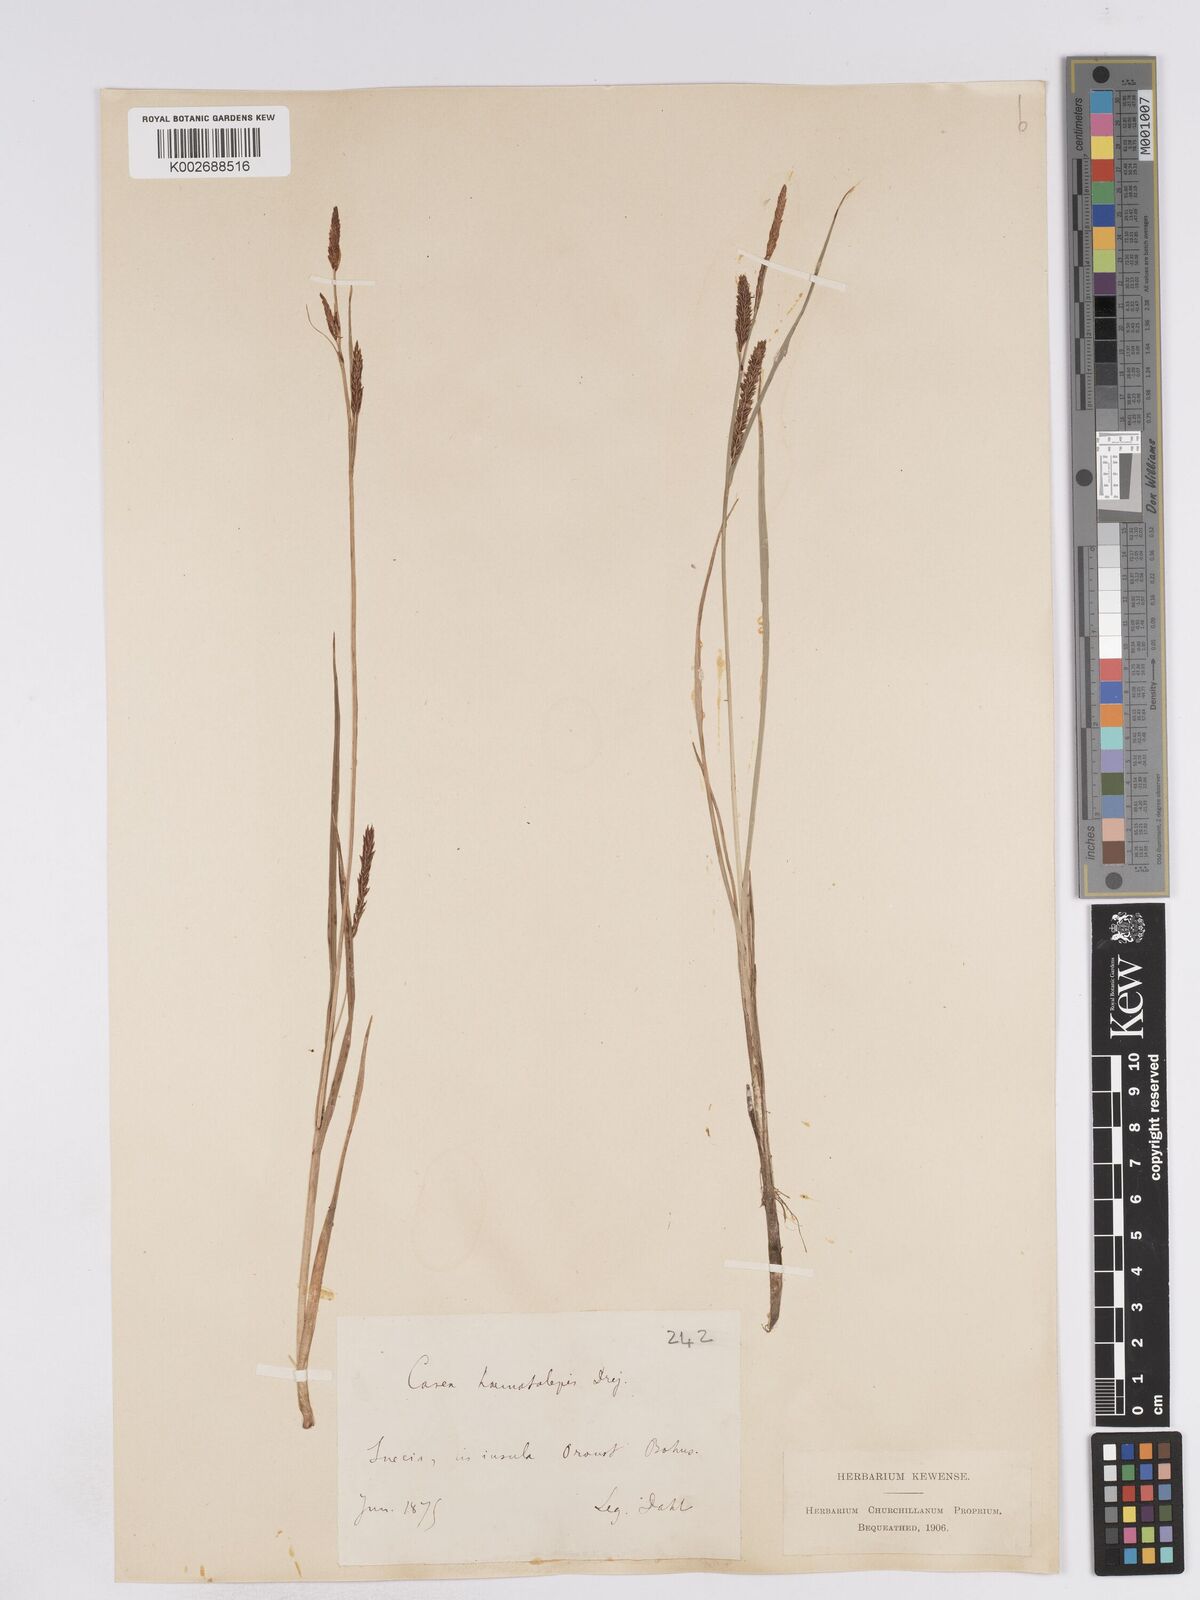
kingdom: Plantae
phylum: Tracheophyta
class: Liliopsida
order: Poales
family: Cyperaceae
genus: Carex
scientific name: Carex recta
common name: Estuarine sedge
